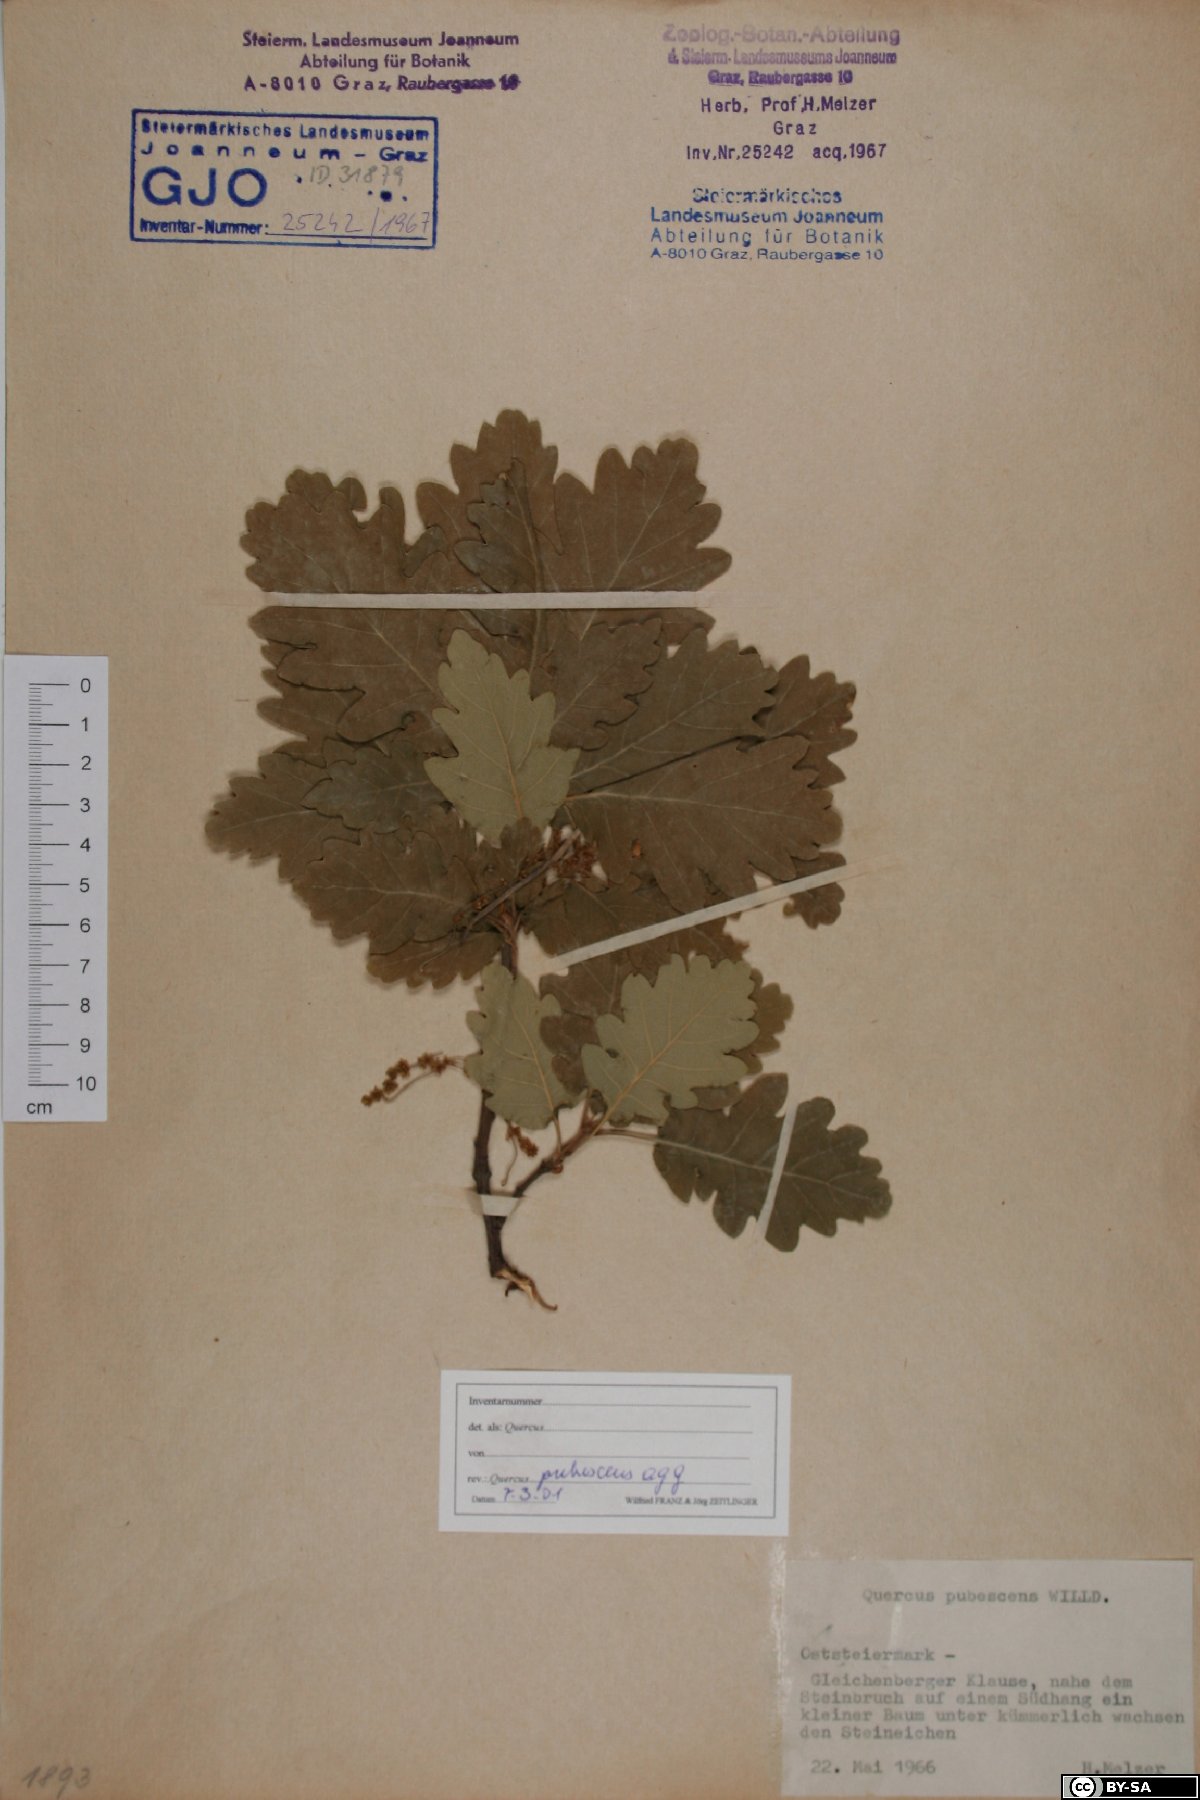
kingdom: Plantae
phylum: Tracheophyta
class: Magnoliopsida
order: Fagales
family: Fagaceae
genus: Quercus
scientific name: Quercus pubescens
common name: Downy oak
